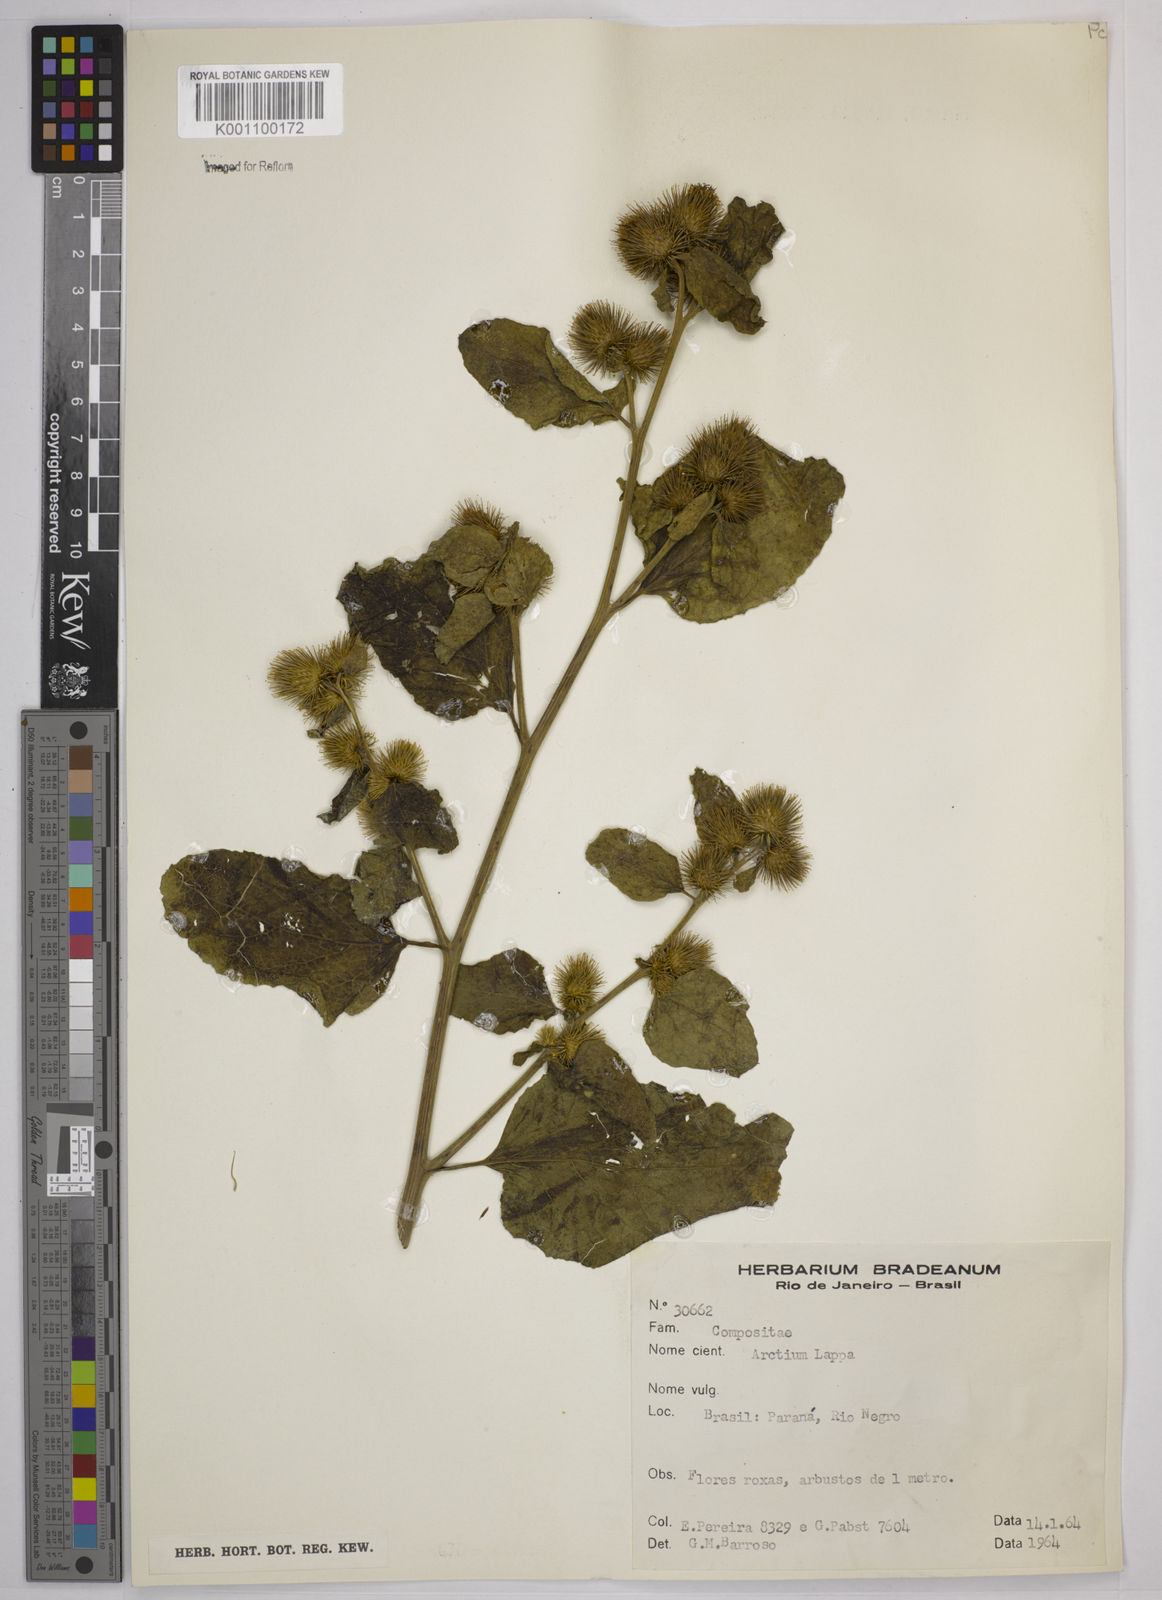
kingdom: Plantae
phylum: Tracheophyta
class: Magnoliopsida
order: Asterales
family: Asteraceae
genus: Arctium
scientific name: Arctium minus
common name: Lesser burdock
